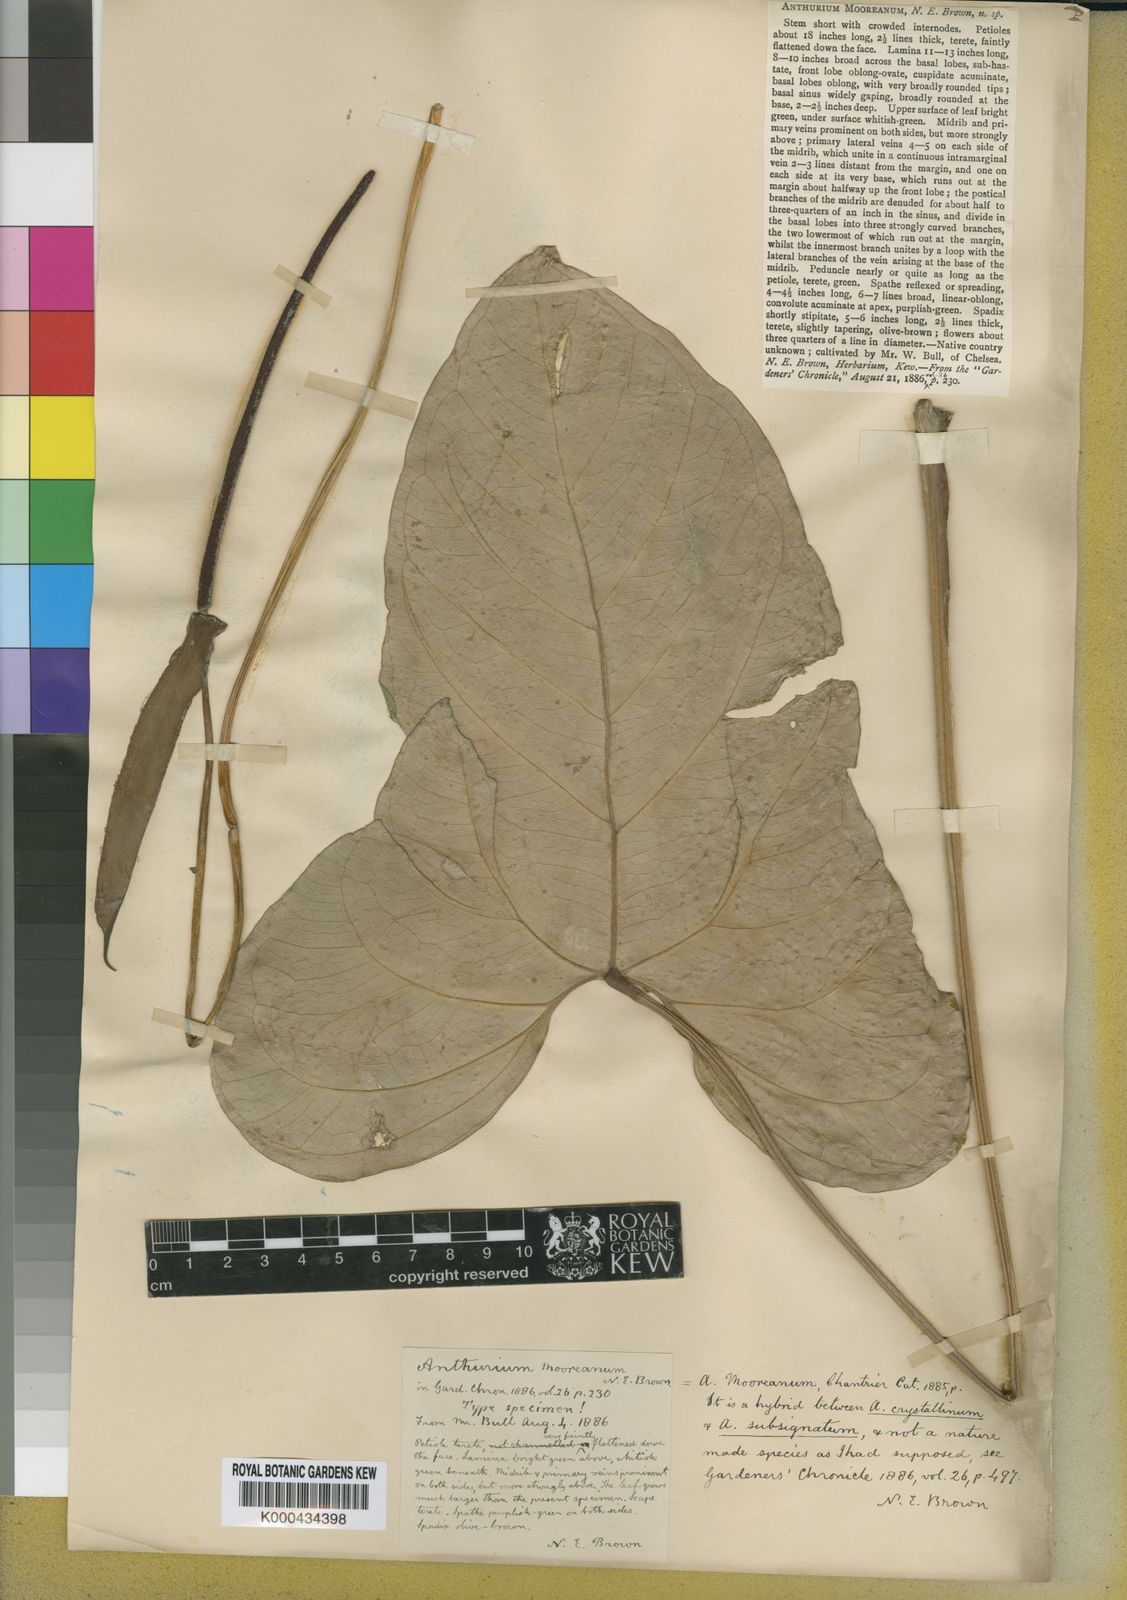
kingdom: Plantae
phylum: Tracheophyta
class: Liliopsida
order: Alismatales
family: Araceae
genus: Anthurium
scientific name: Anthurium mooreanum
